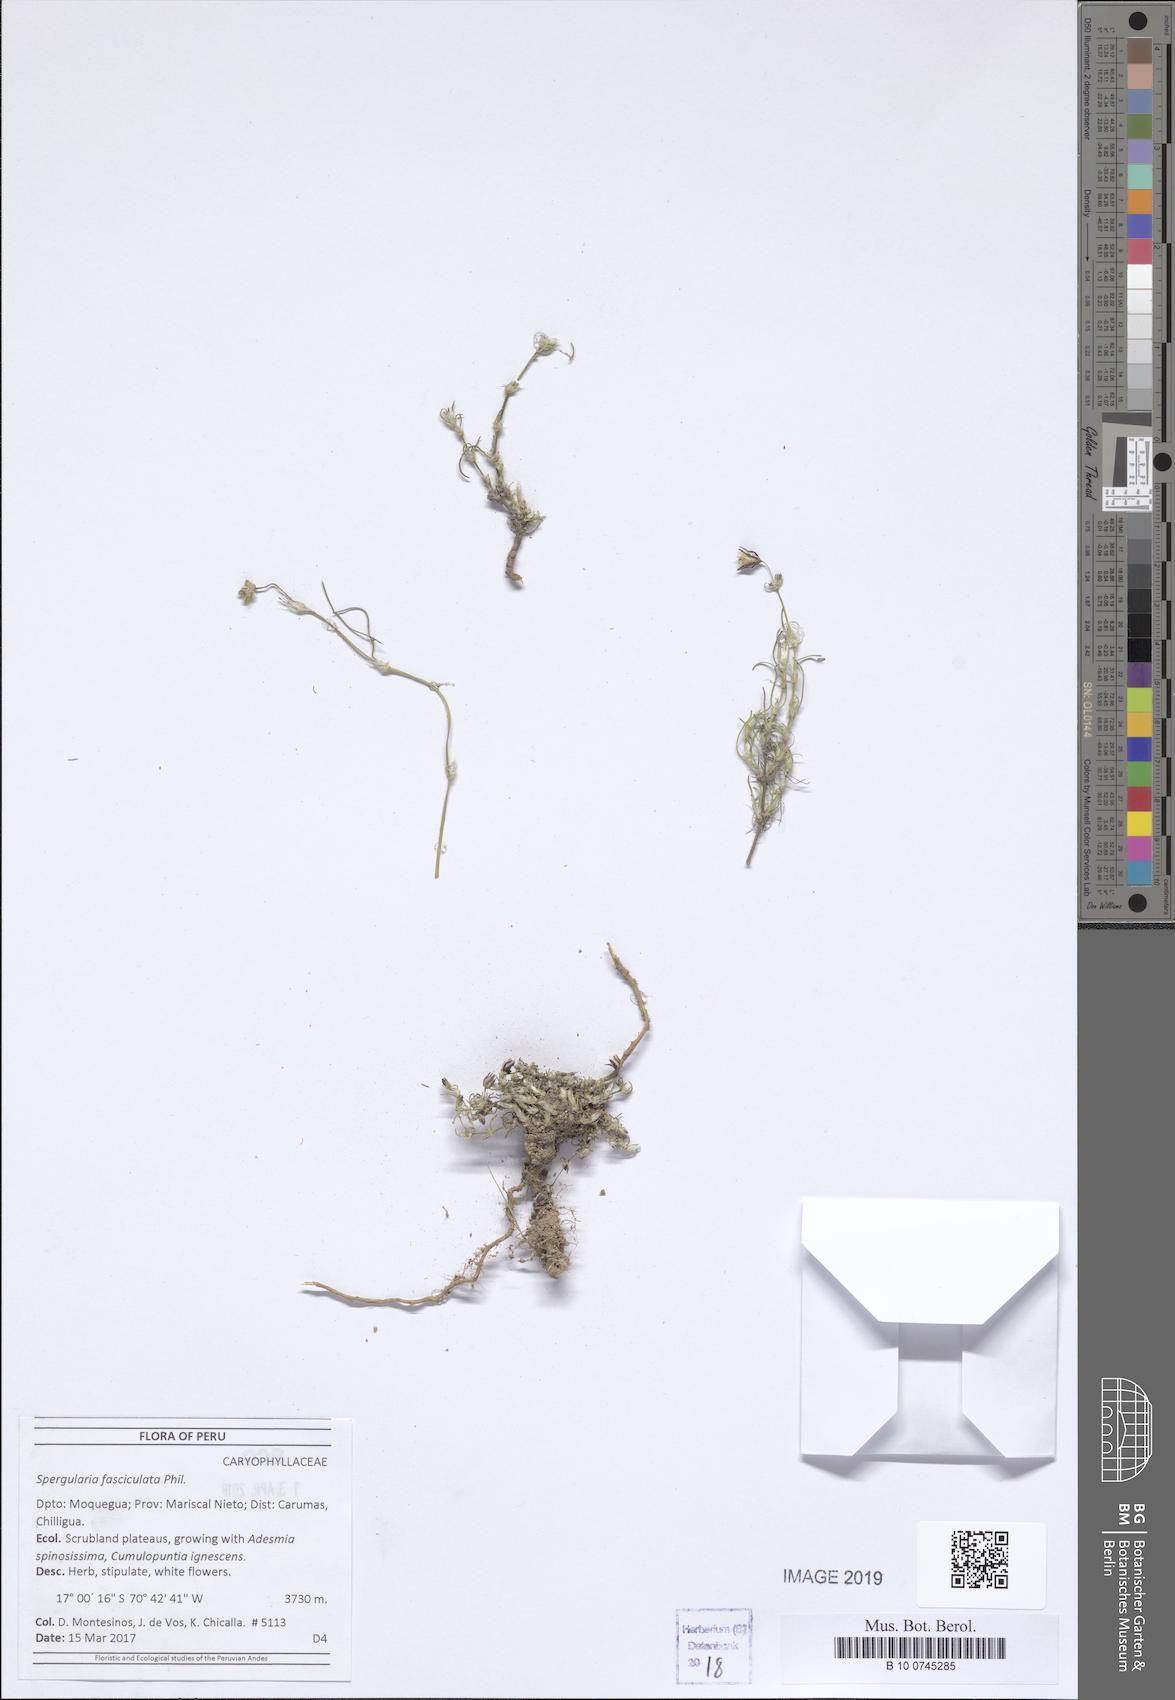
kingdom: Plantae
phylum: Tracheophyta
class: Magnoliopsida
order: Caryophyllales
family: Caryophyllaceae
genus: Spergularia
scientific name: Spergularia fasciculata
